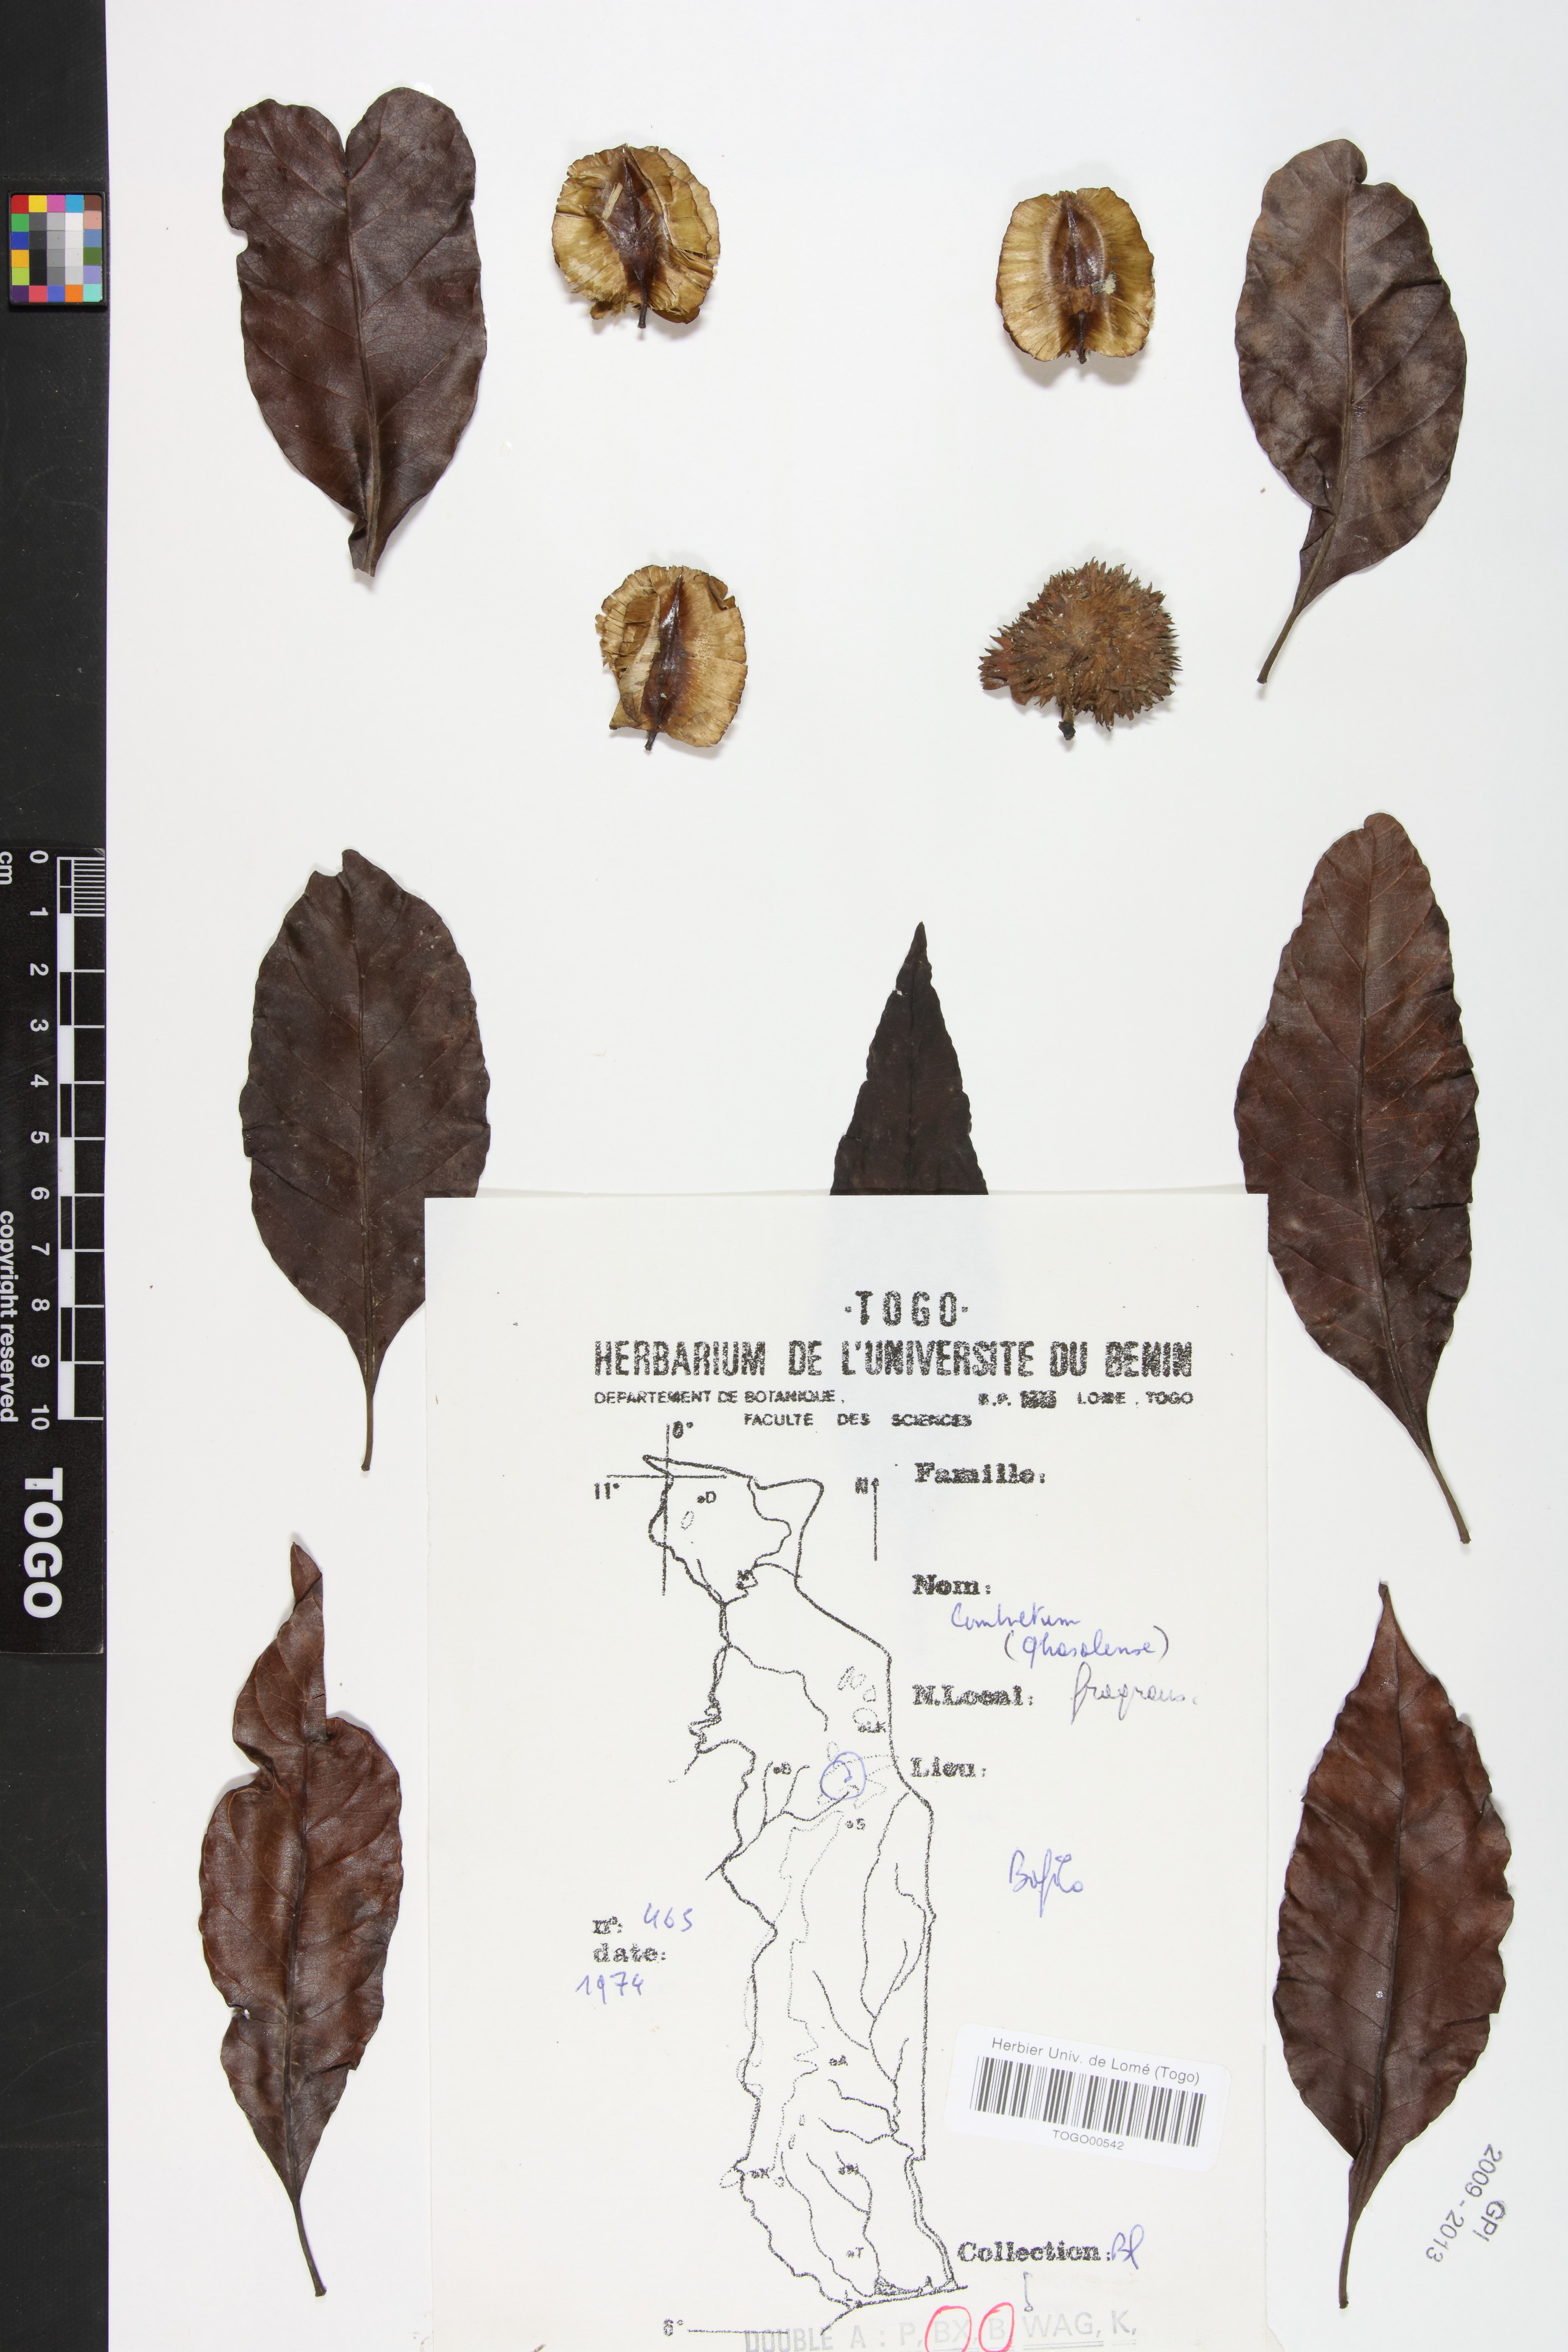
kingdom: Plantae
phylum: Tracheophyta
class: Magnoliopsida
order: Myrtales
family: Combretaceae
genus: Combretum
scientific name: Combretum adenogonium
